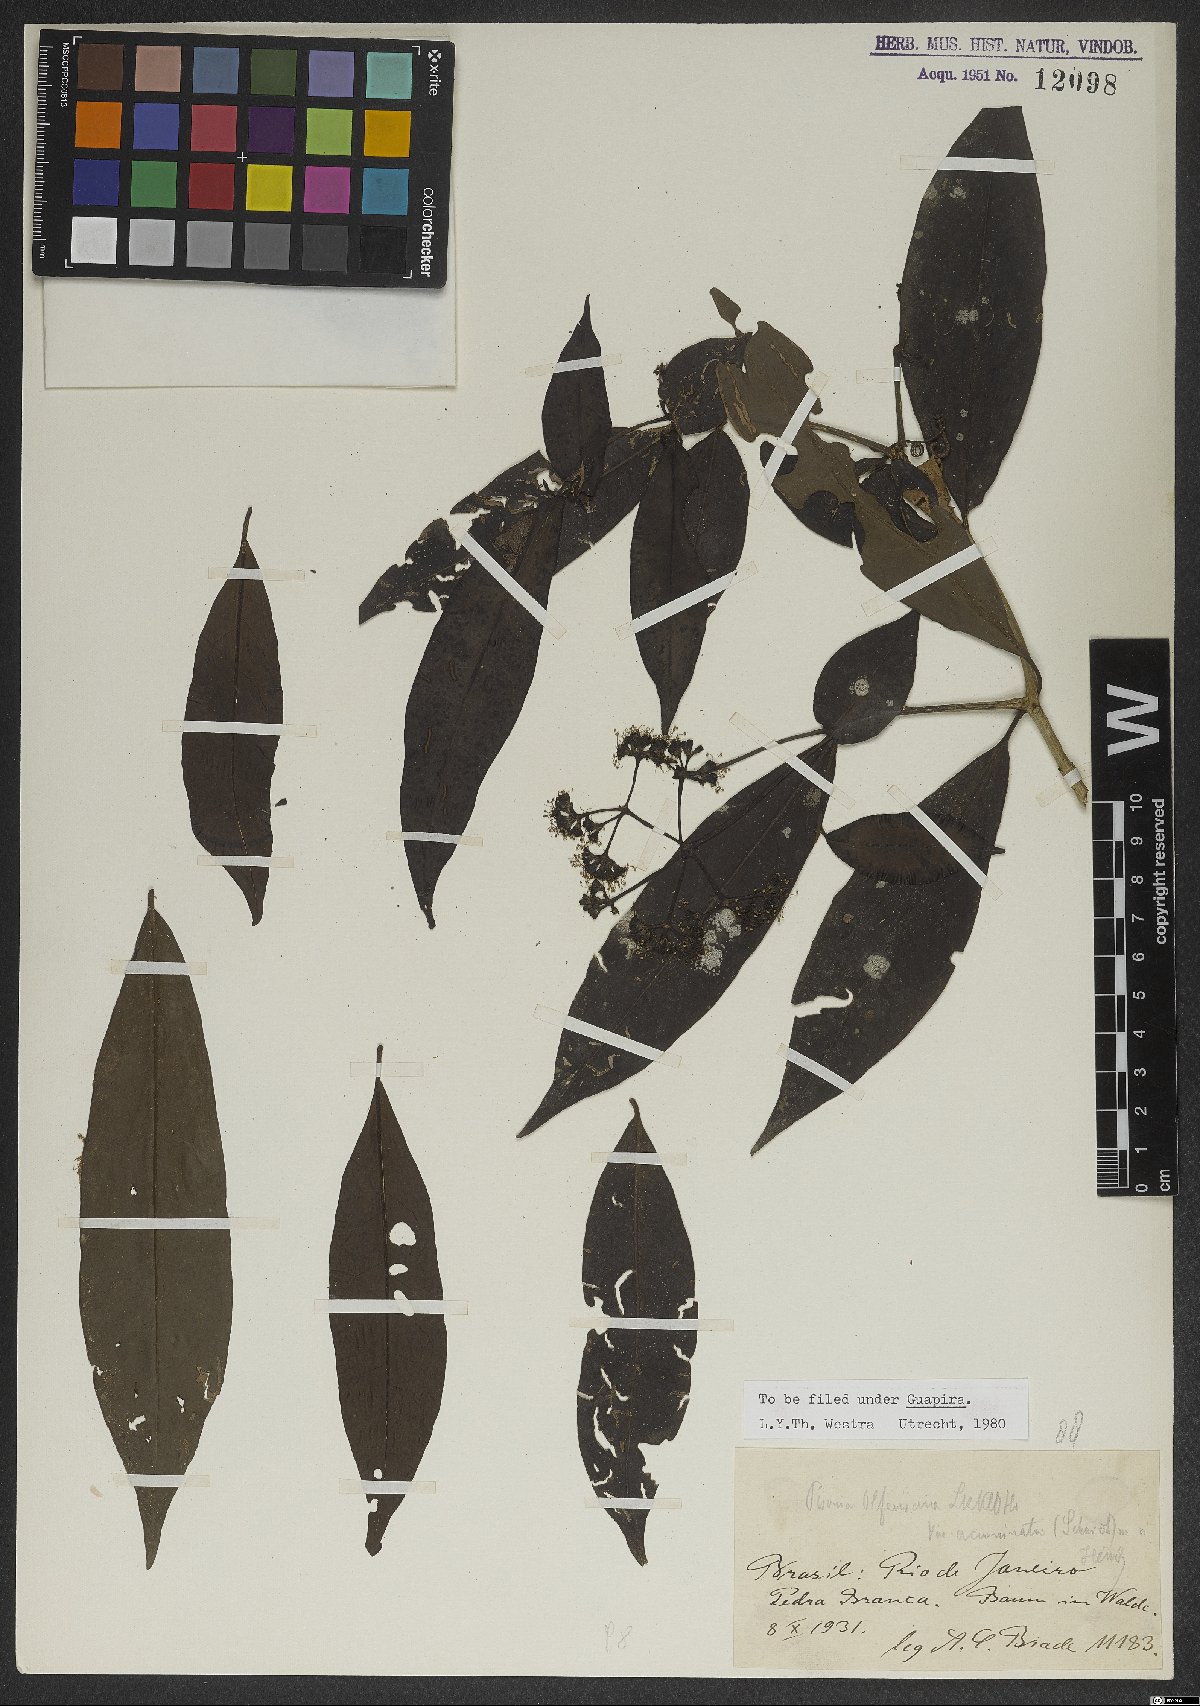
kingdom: Plantae
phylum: Tracheophyta
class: Magnoliopsida
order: Caryophyllales
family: Nyctaginaceae
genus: Guapira
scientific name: Guapira opposita
